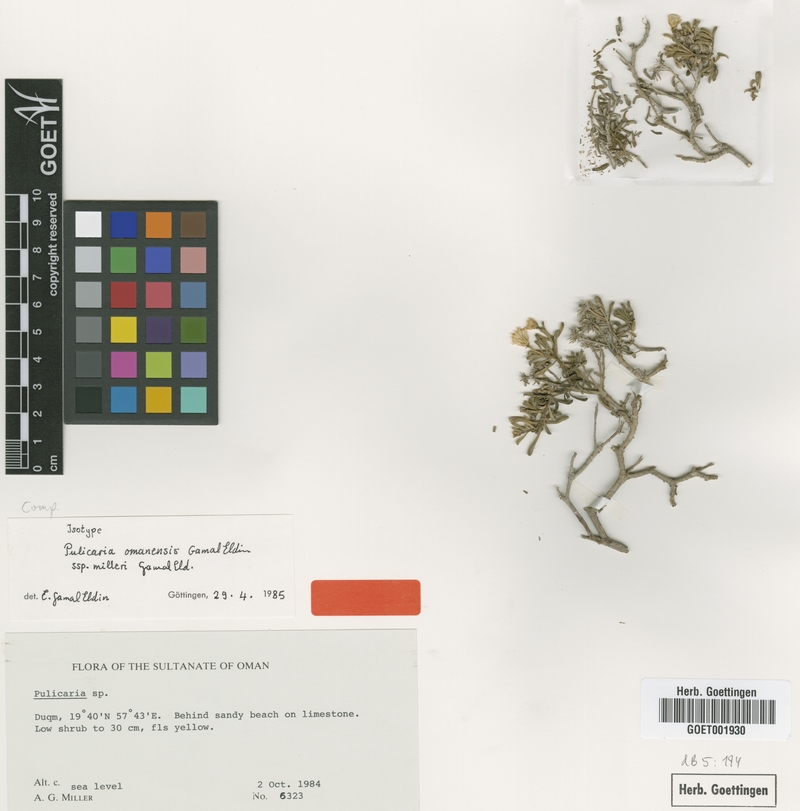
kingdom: Plantae
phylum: Tracheophyta
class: Magnoliopsida
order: Asterales
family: Asteraceae
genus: Pulicaria
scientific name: Pulicaria omanensis
